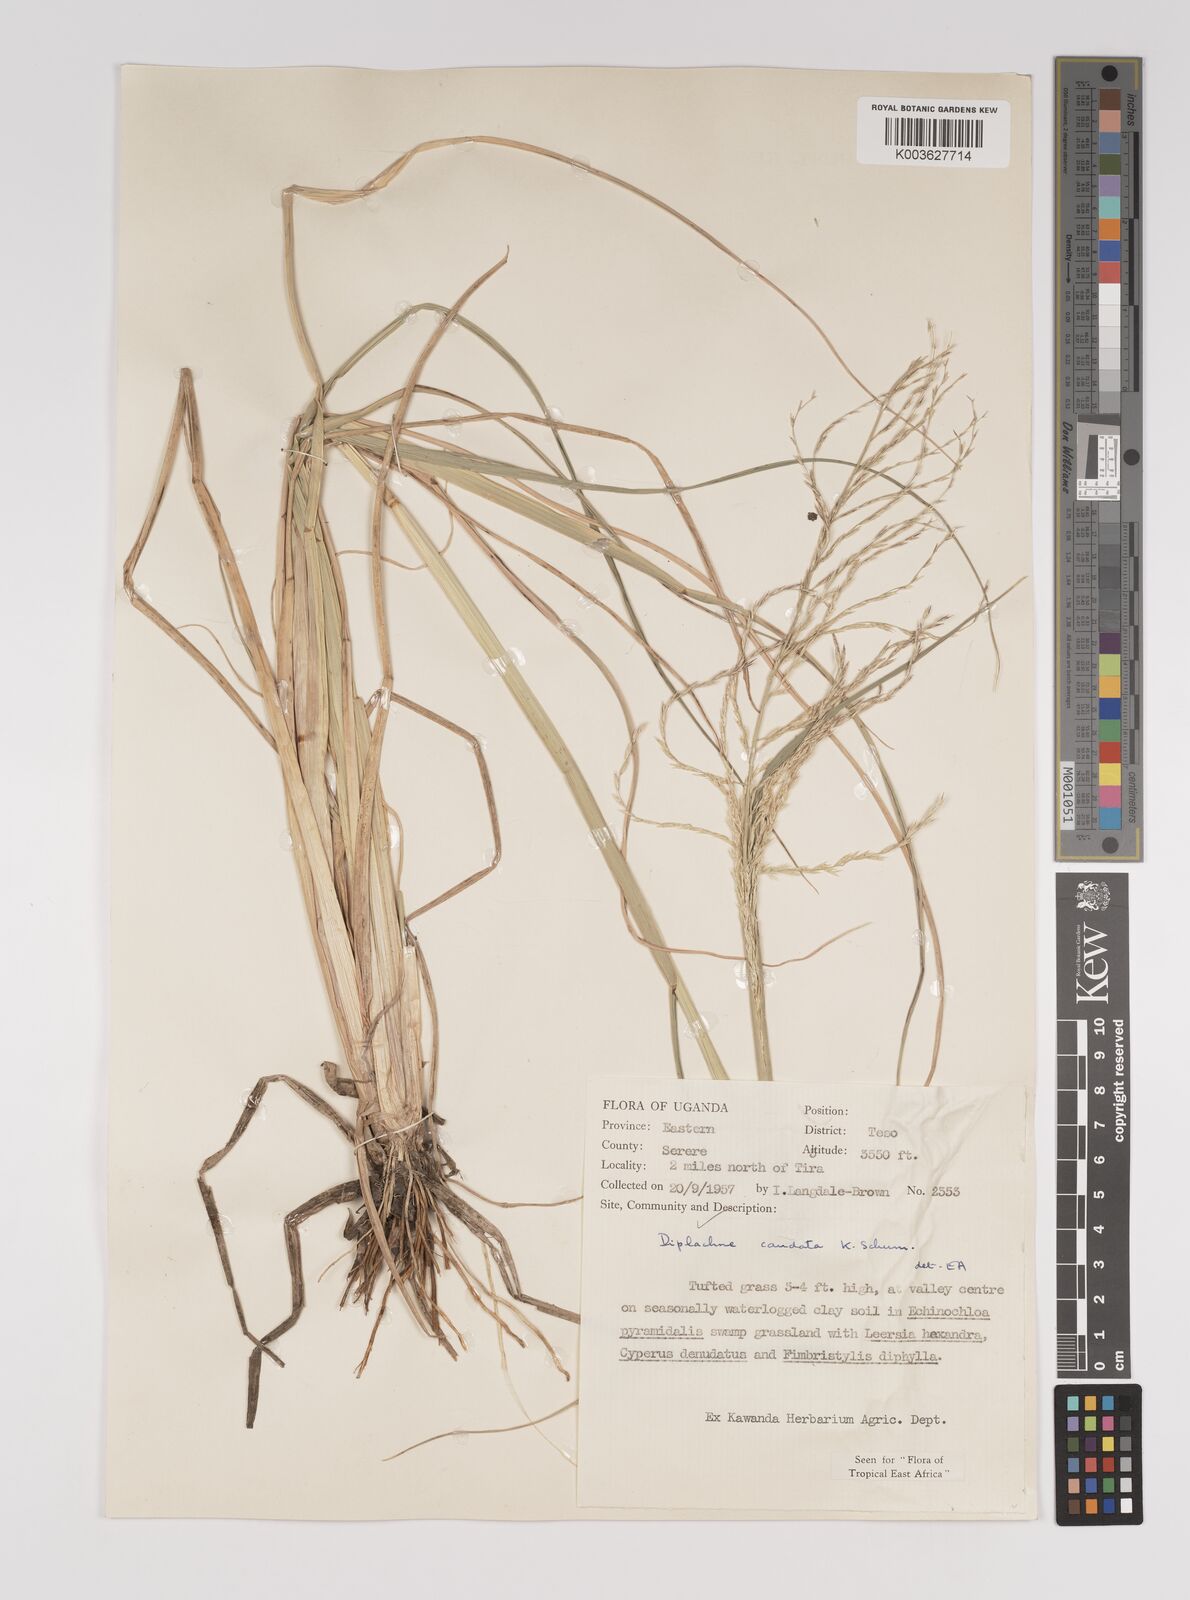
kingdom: Plantae
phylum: Tracheophyta
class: Liliopsida
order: Poales
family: Poaceae
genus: Leptochloa
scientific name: Leptochloa caudata
